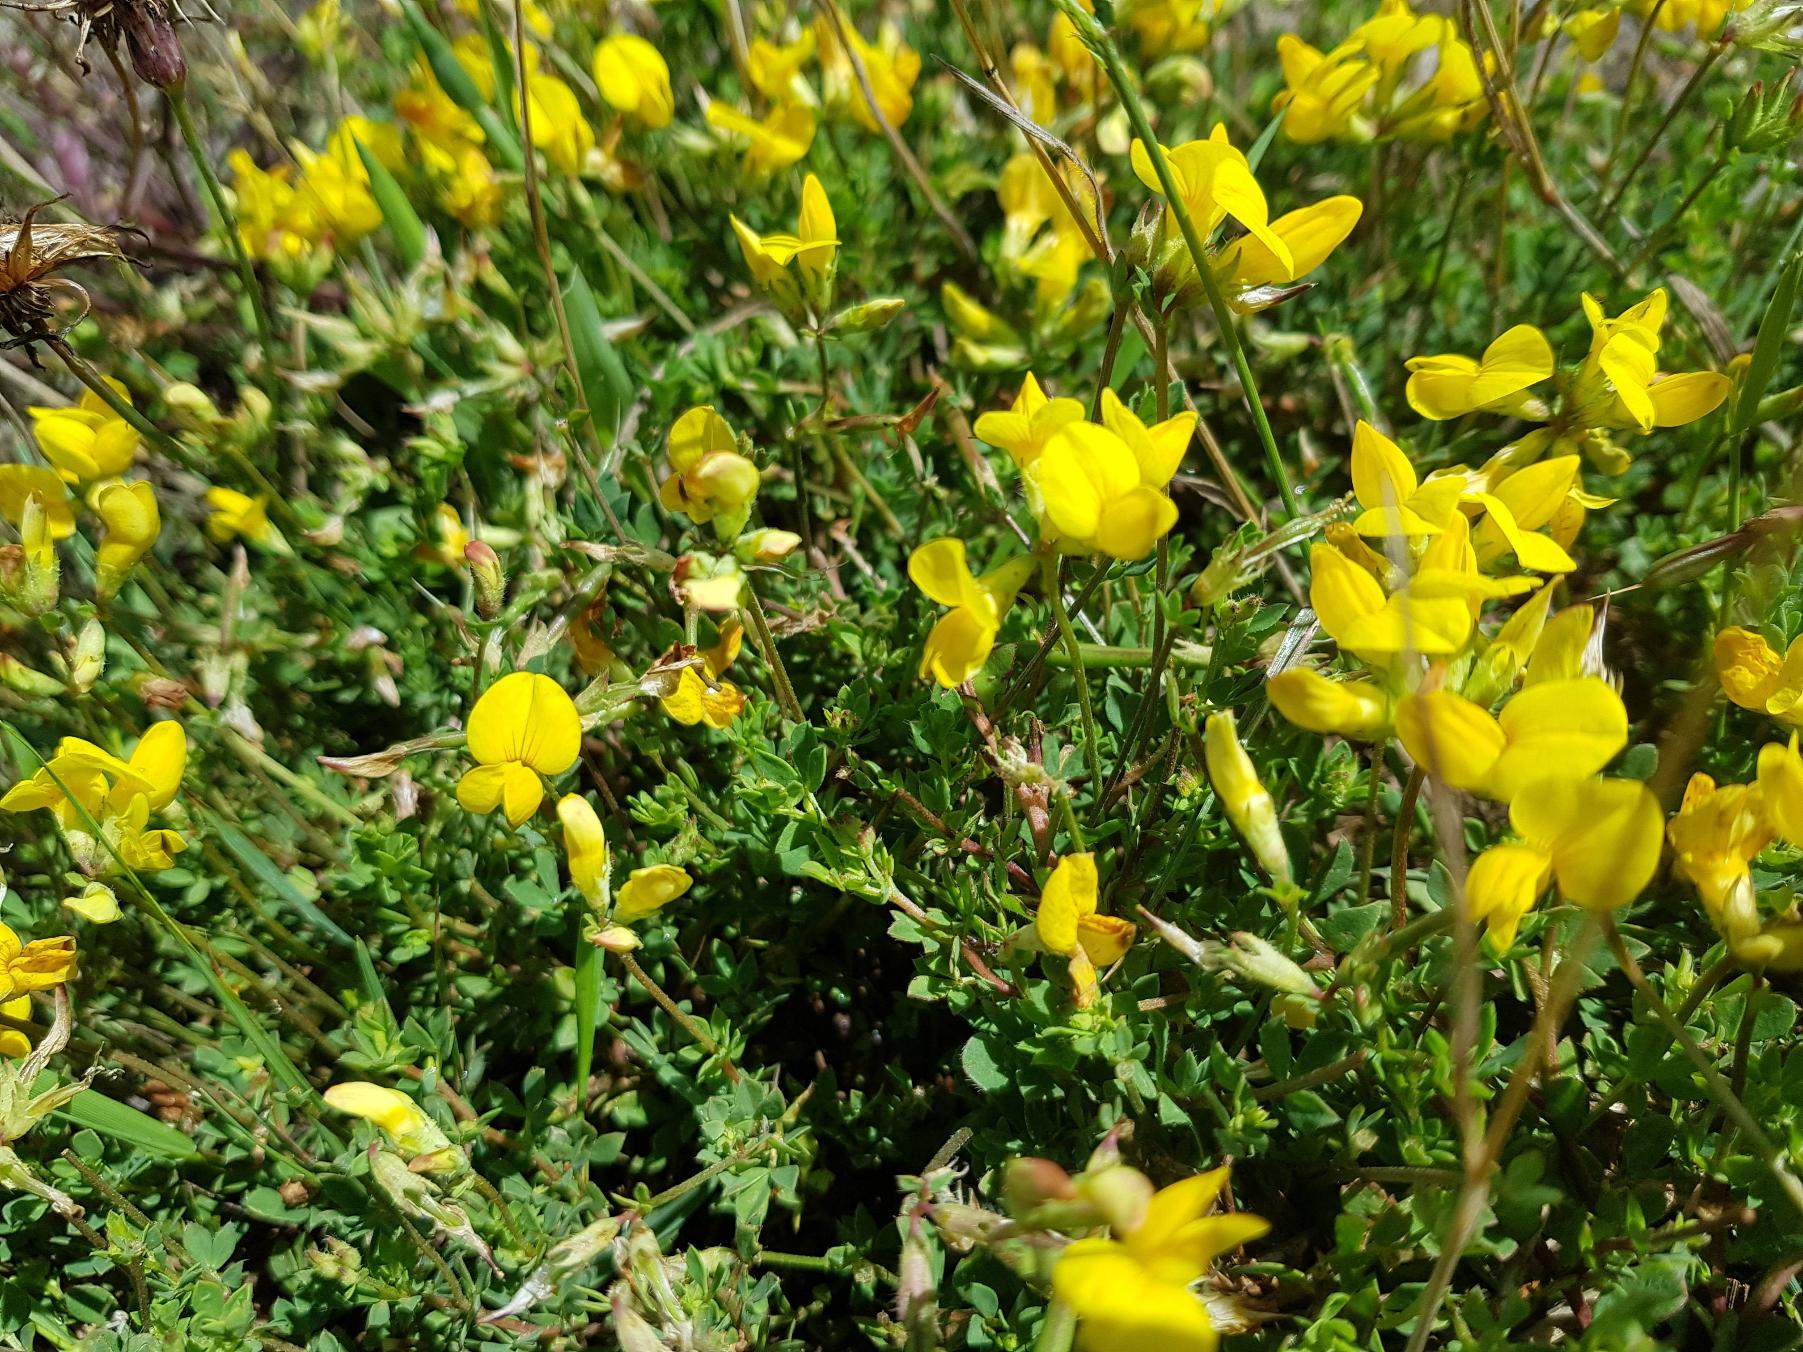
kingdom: Plantae
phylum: Tracheophyta
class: Magnoliopsida
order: Fabales
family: Fabaceae
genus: Lotus
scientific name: Lotus corniculatus
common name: Almindelig kællingetand
